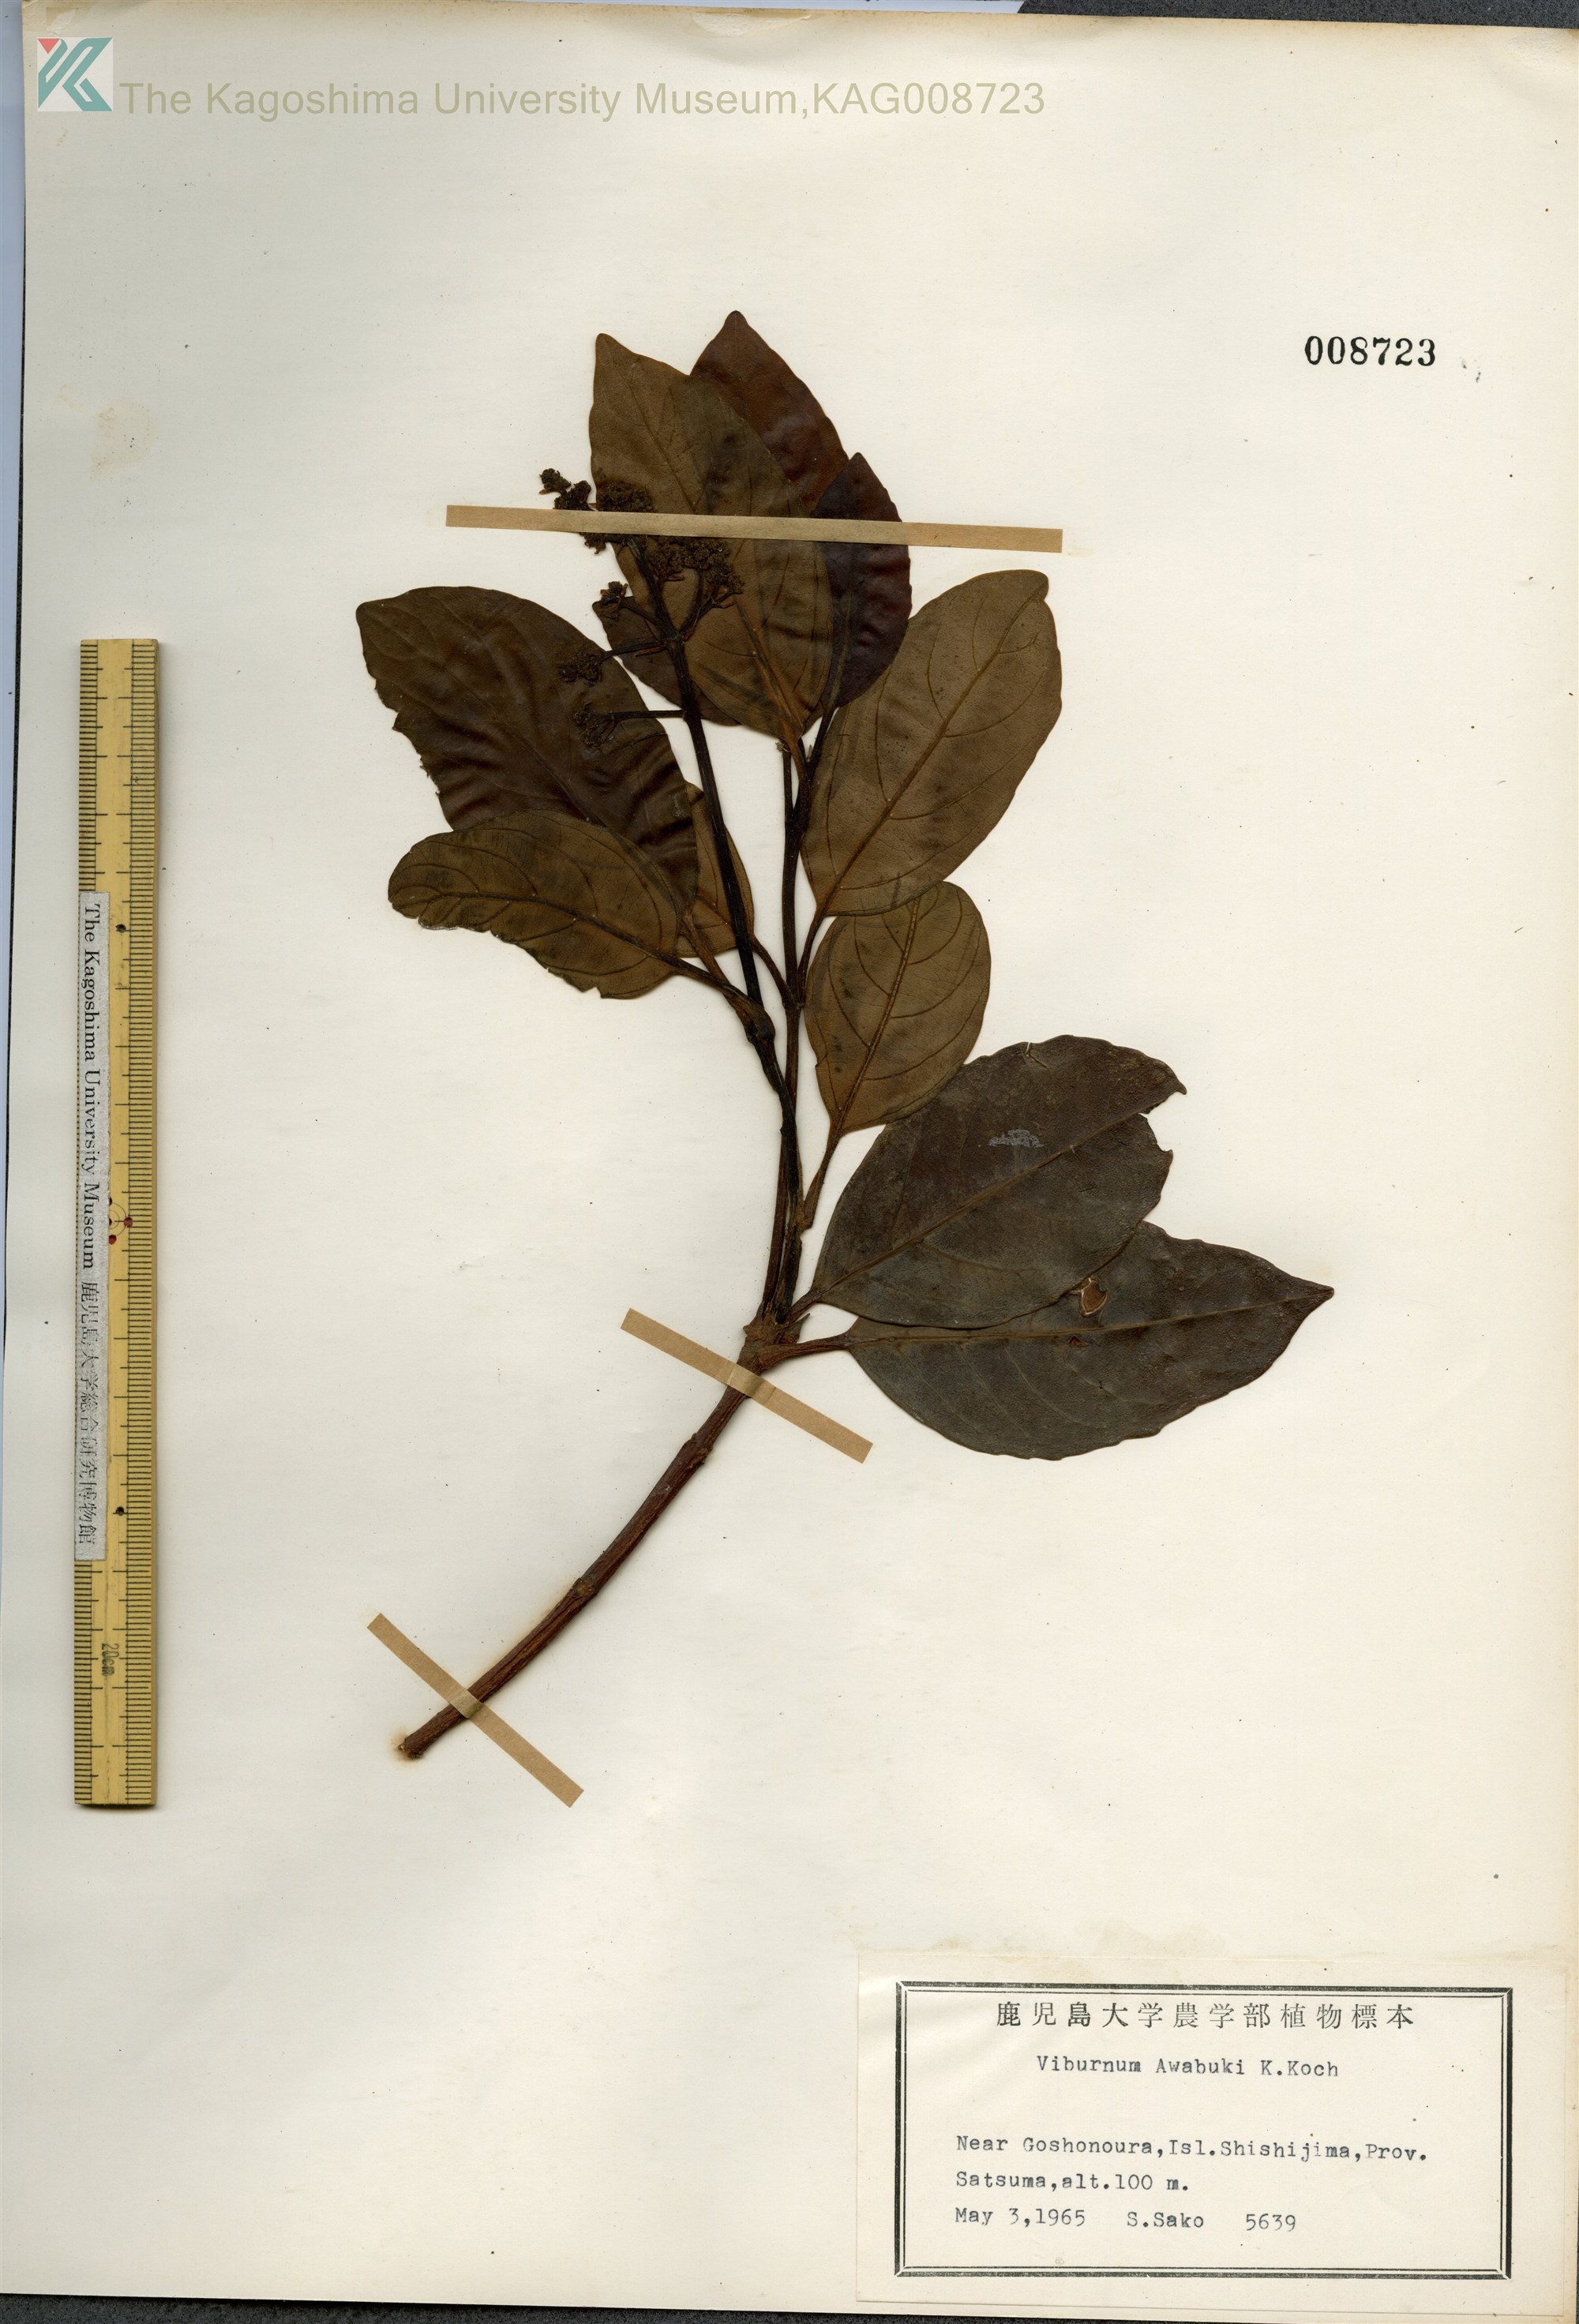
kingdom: Plantae
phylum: Tracheophyta
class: Magnoliopsida
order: Dipsacales
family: Viburnaceae
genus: Viburnum
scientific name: Viburnum odoratissimum
